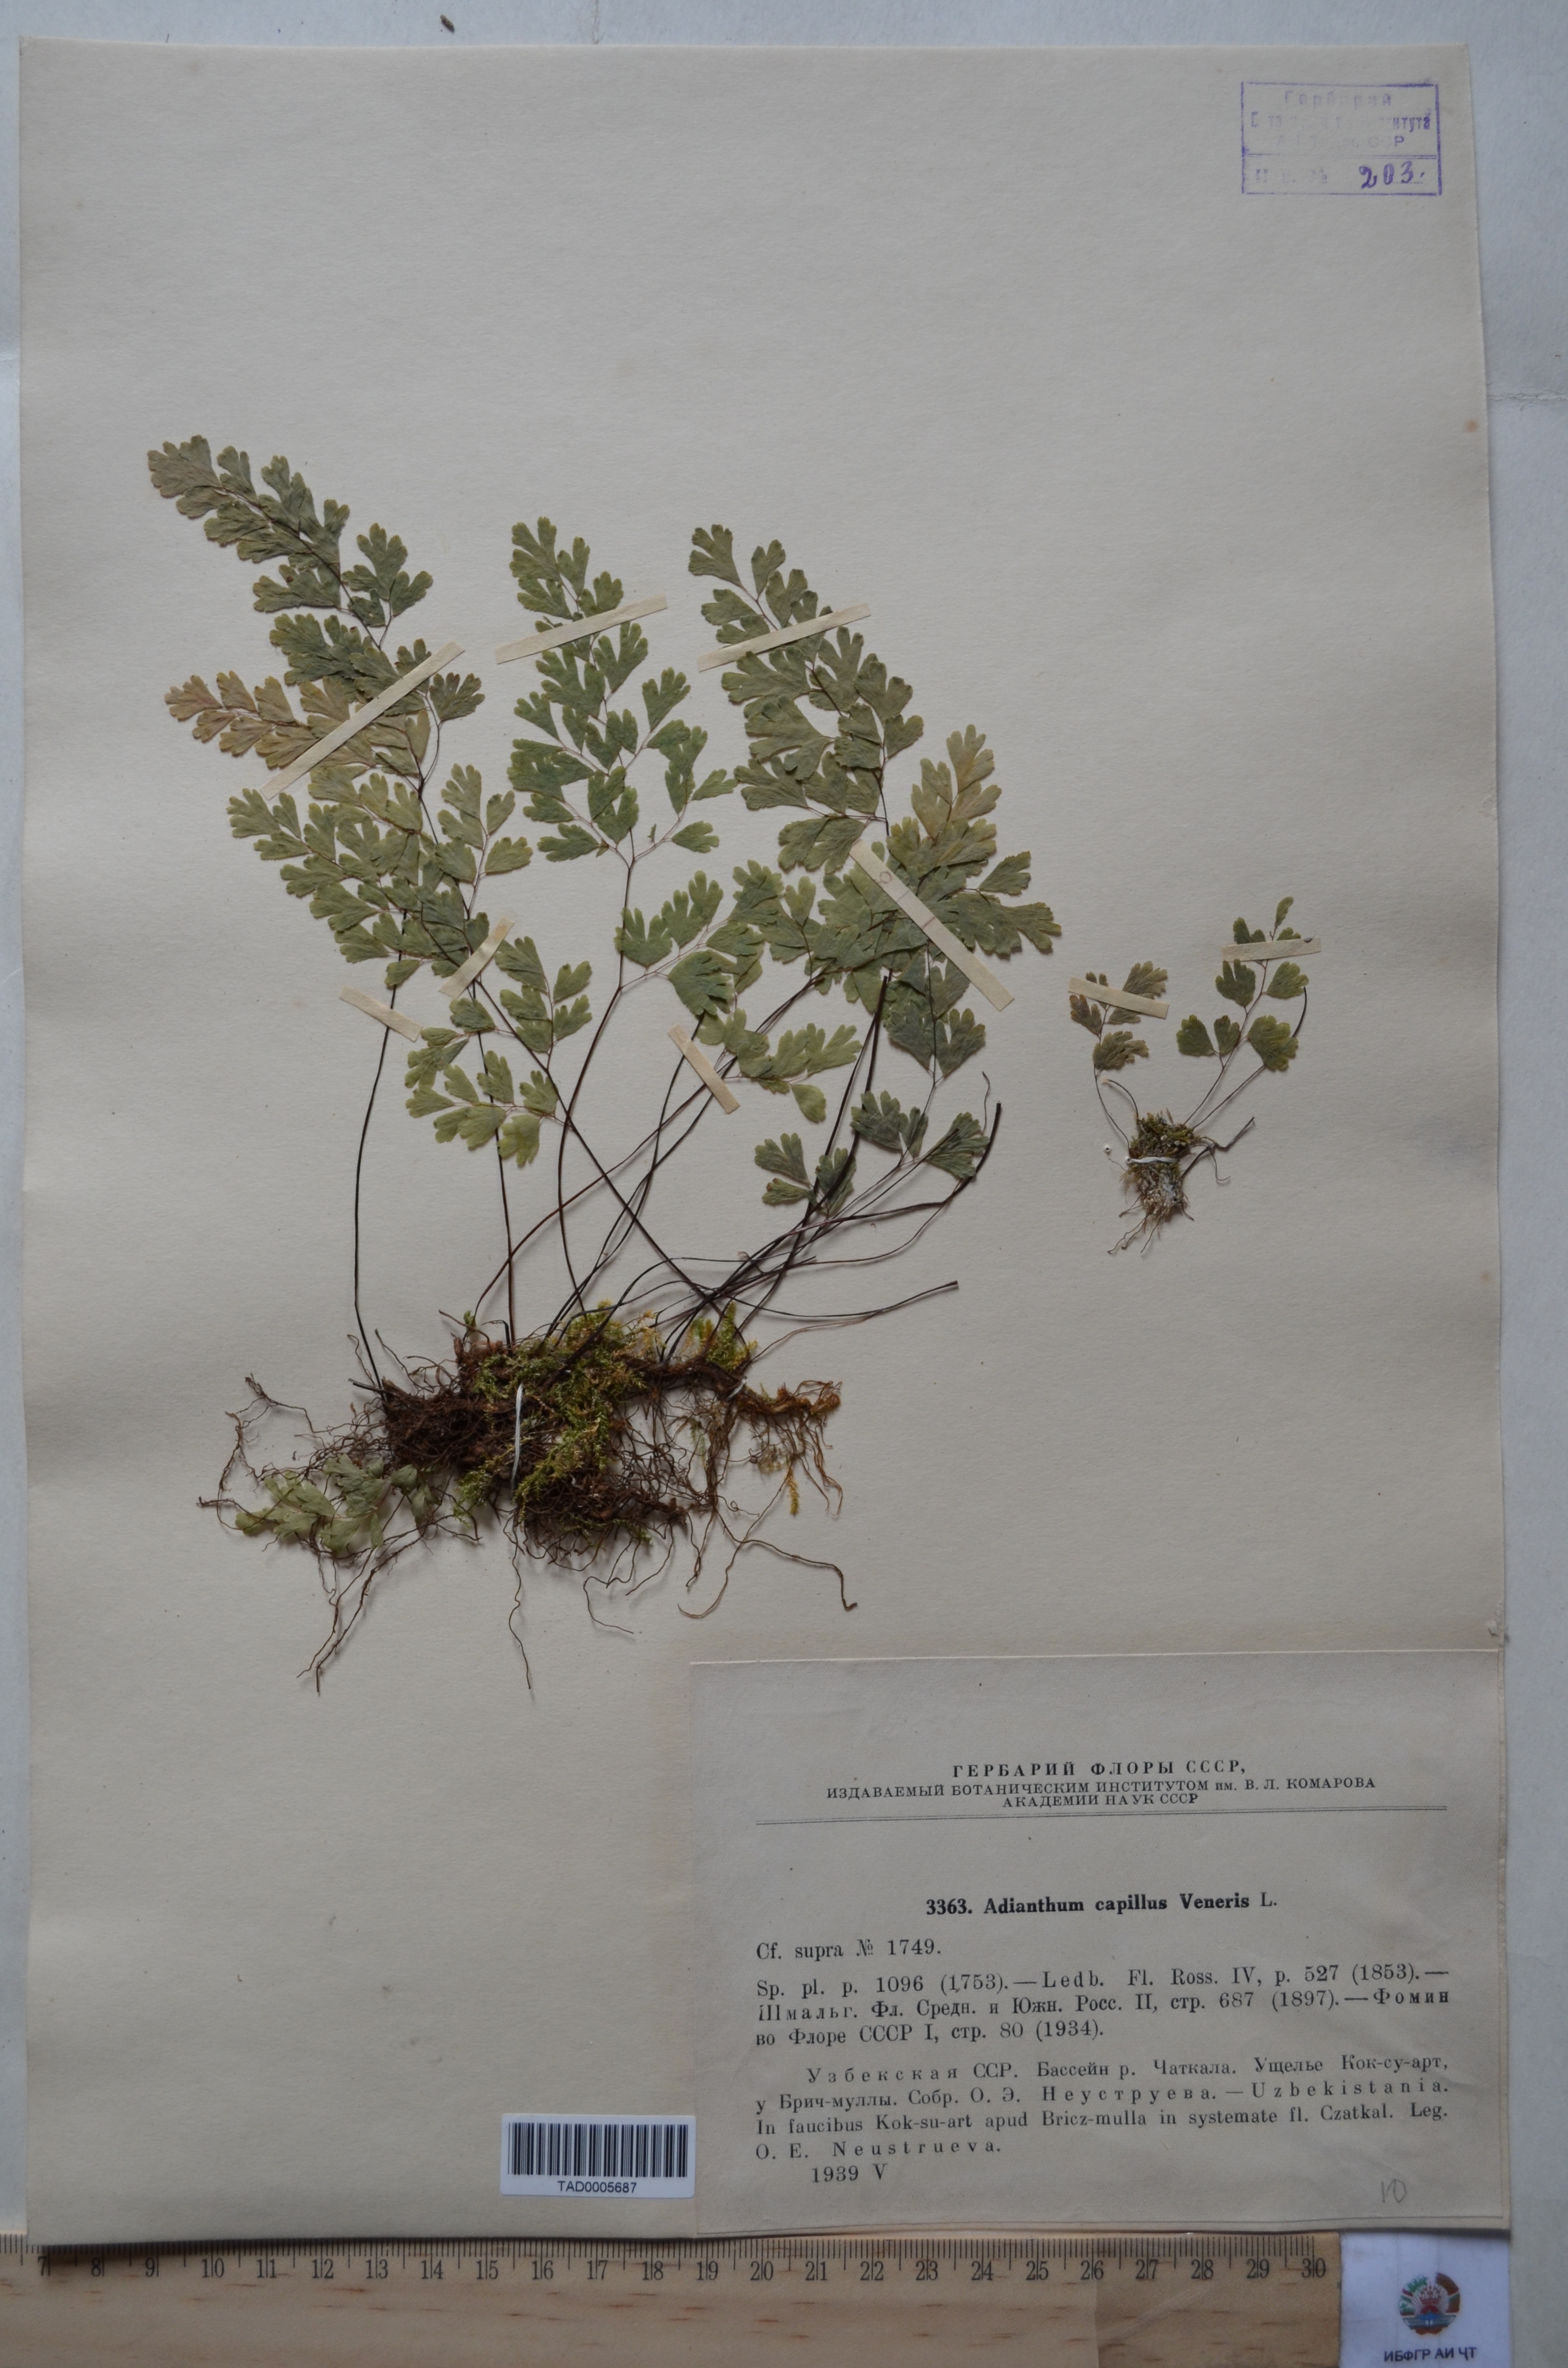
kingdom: Plantae
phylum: Tracheophyta
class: Polypodiopsida
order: Polypodiales
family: Pteridaceae
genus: Adiantum
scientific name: Adiantum capillus-veneris
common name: Maidenhair fern
